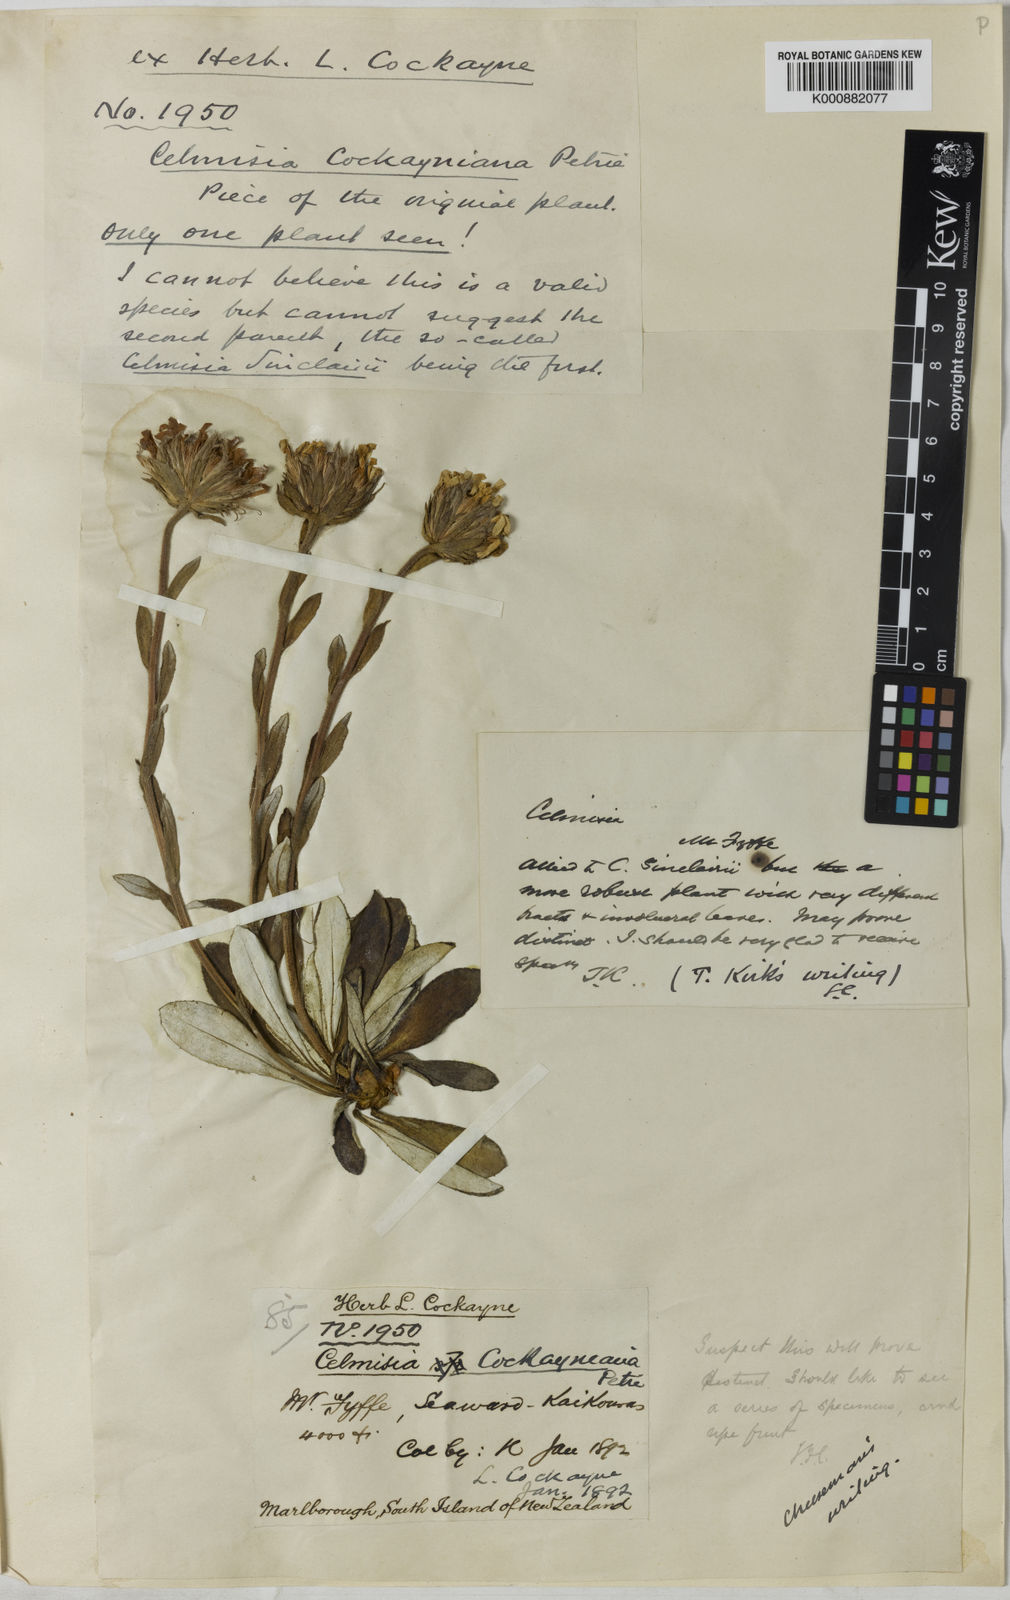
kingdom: Plantae
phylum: Tracheophyta
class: Magnoliopsida
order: Asterales
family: Asteraceae
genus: Celmisia
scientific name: Celmisia
